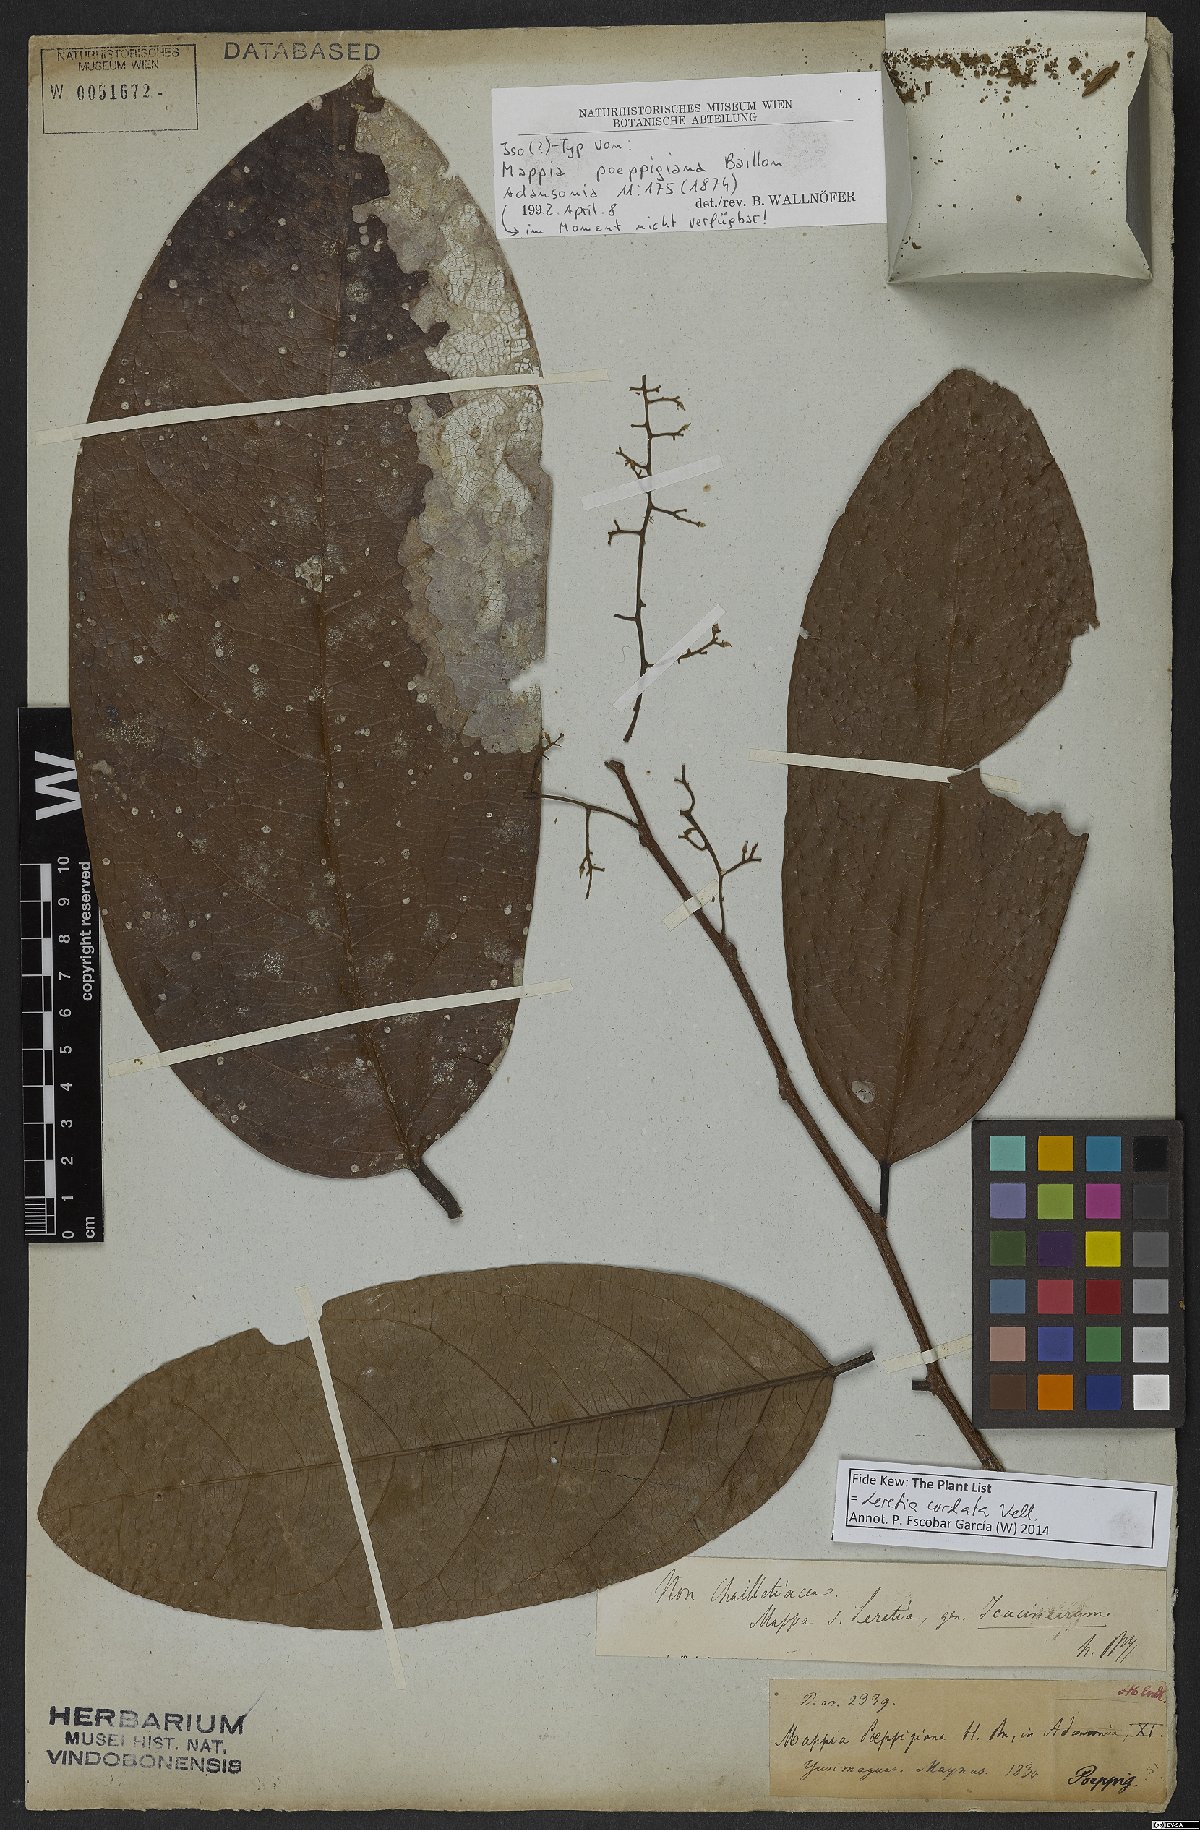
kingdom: Plantae
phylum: Tracheophyta
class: Magnoliopsida
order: Icacinales
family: Icacinaceae
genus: Leretia
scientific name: Leretia cordata
